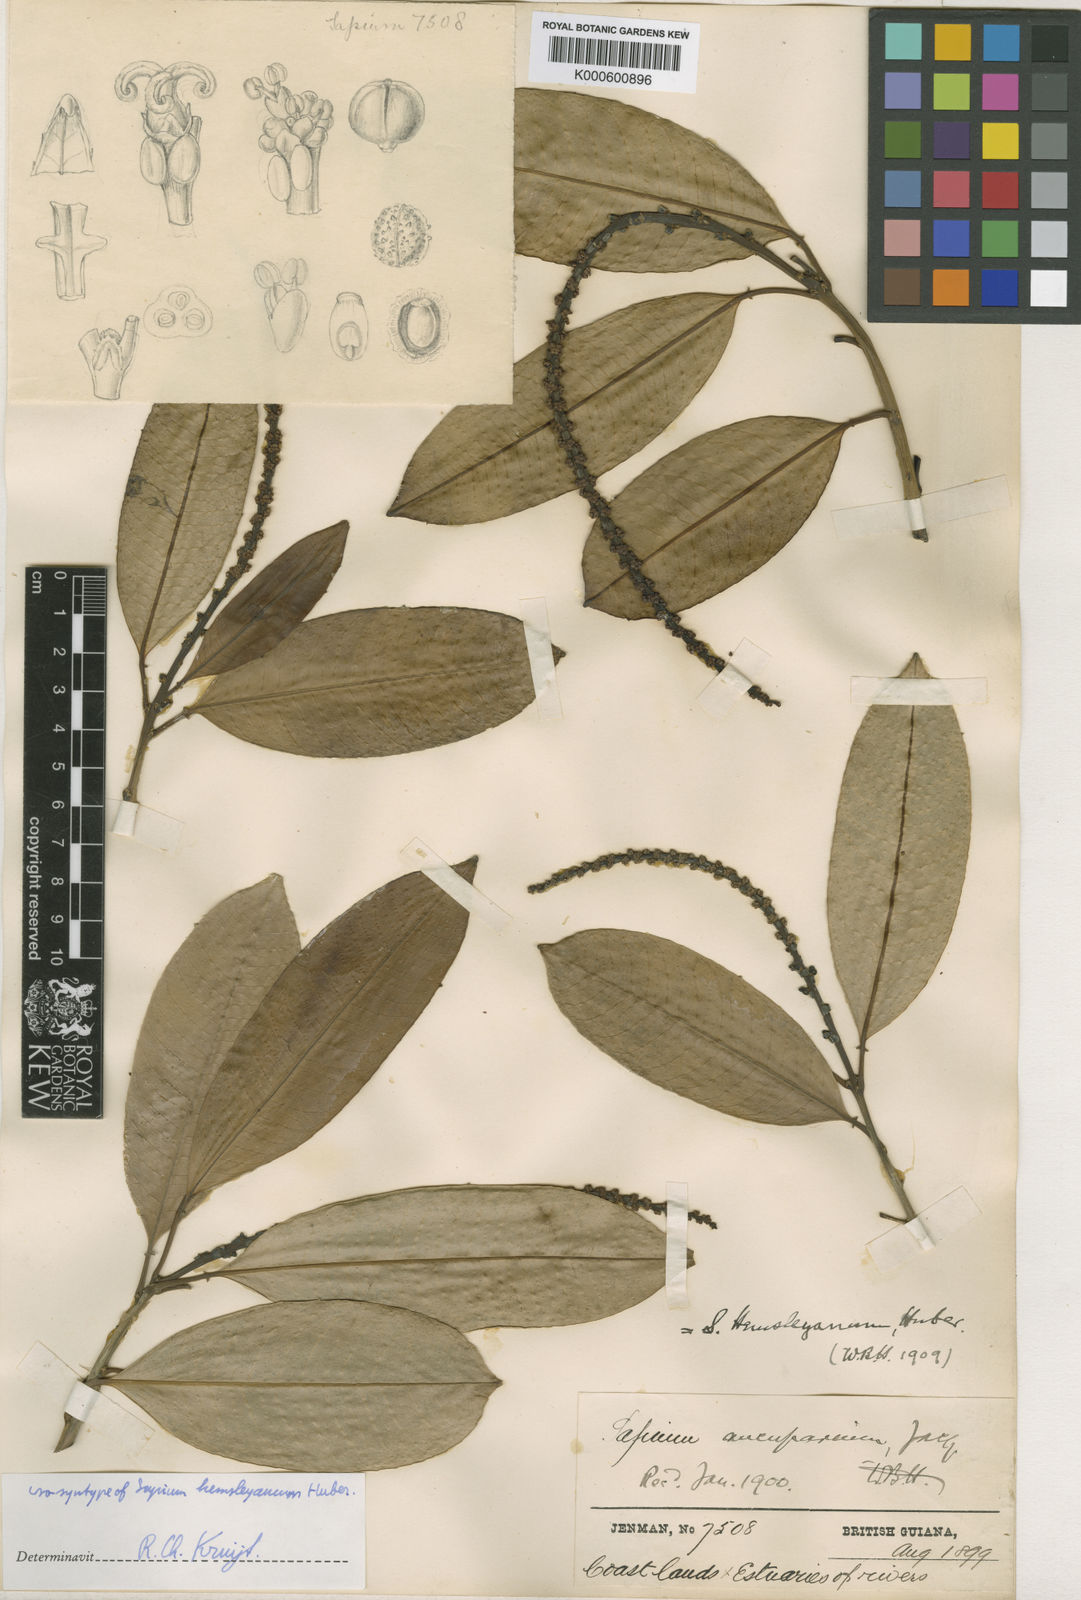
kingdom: Plantae
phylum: Tracheophyta
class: Magnoliopsida
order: Malpighiales
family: Euphorbiaceae
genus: Sapium
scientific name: Sapium glandulosum
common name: Milktree
